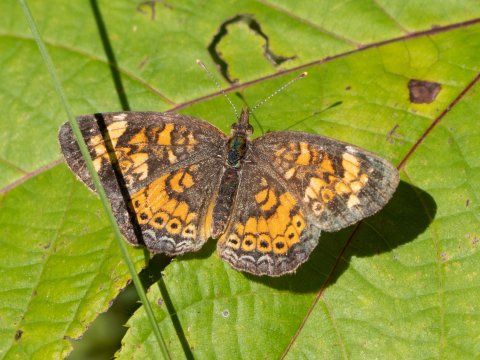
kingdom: Animalia
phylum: Arthropoda
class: Insecta
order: Lepidoptera
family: Nymphalidae
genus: Phyciodes
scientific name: Phyciodes
